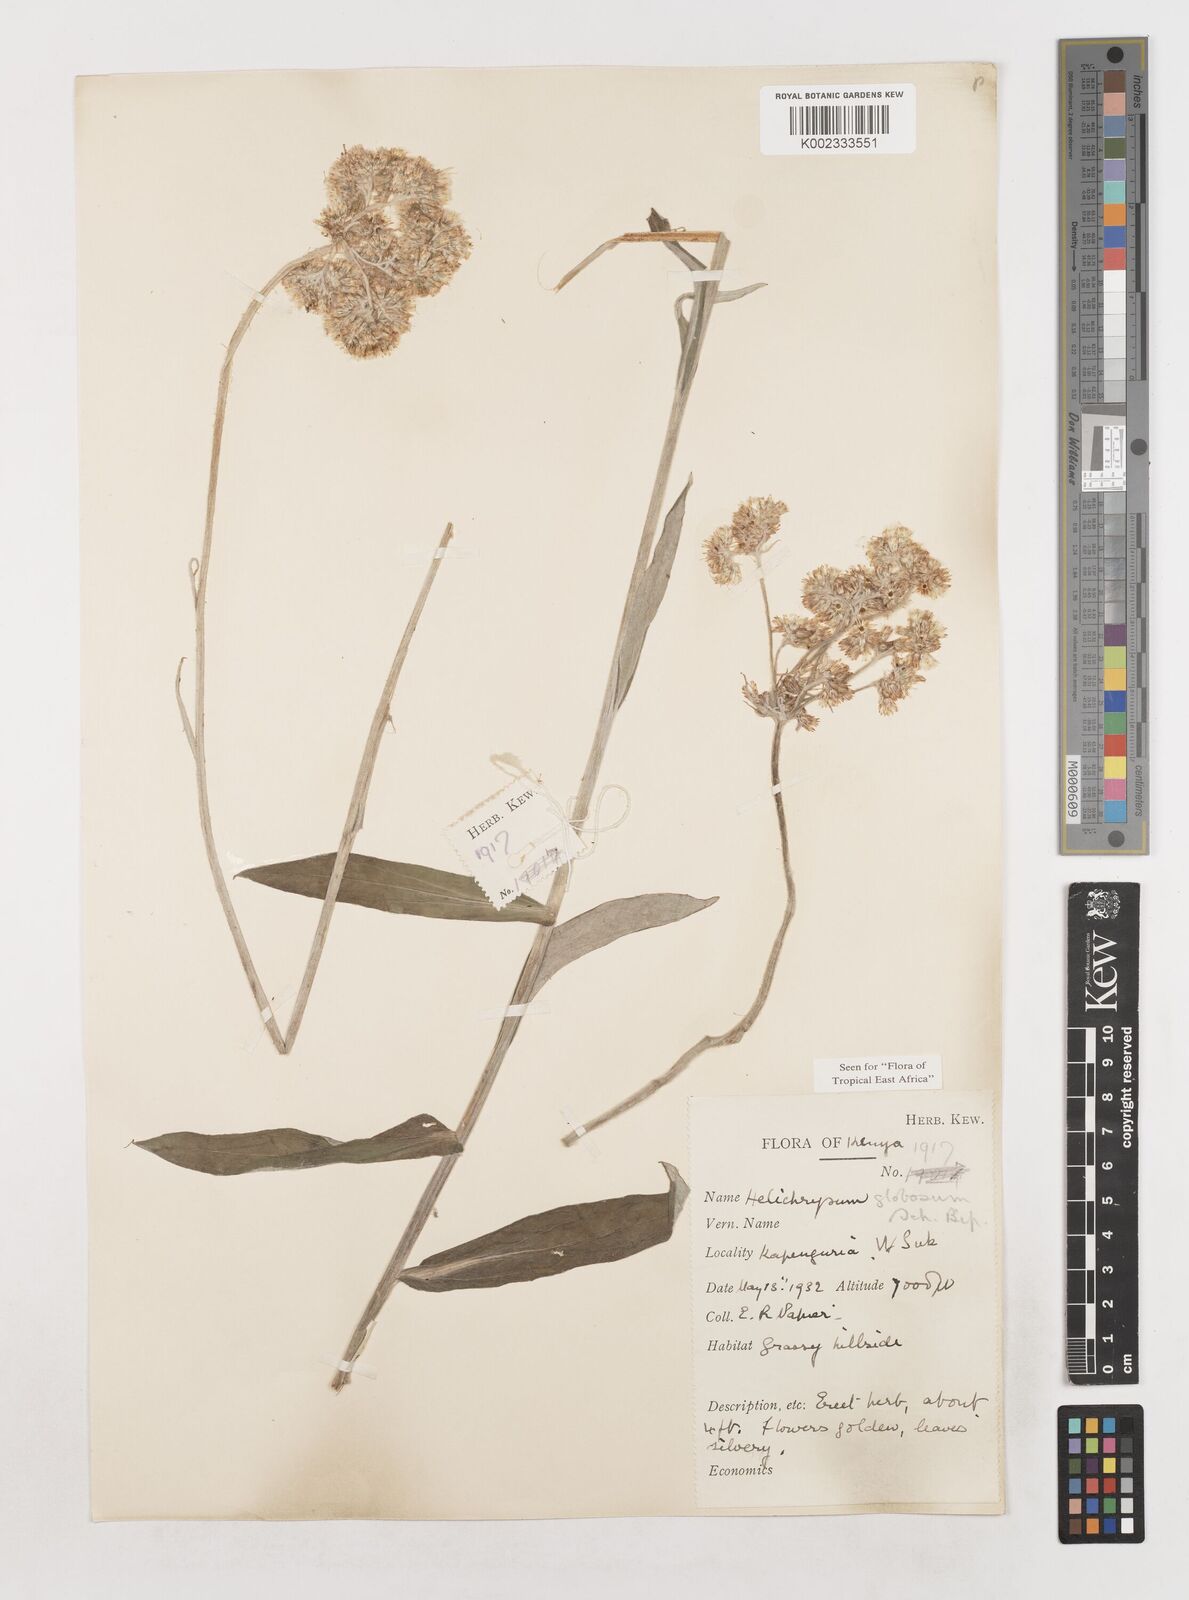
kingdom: Plantae
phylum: Tracheophyta
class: Magnoliopsida
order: Asterales
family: Asteraceae
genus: Helichrysum
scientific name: Helichrysum globosum
